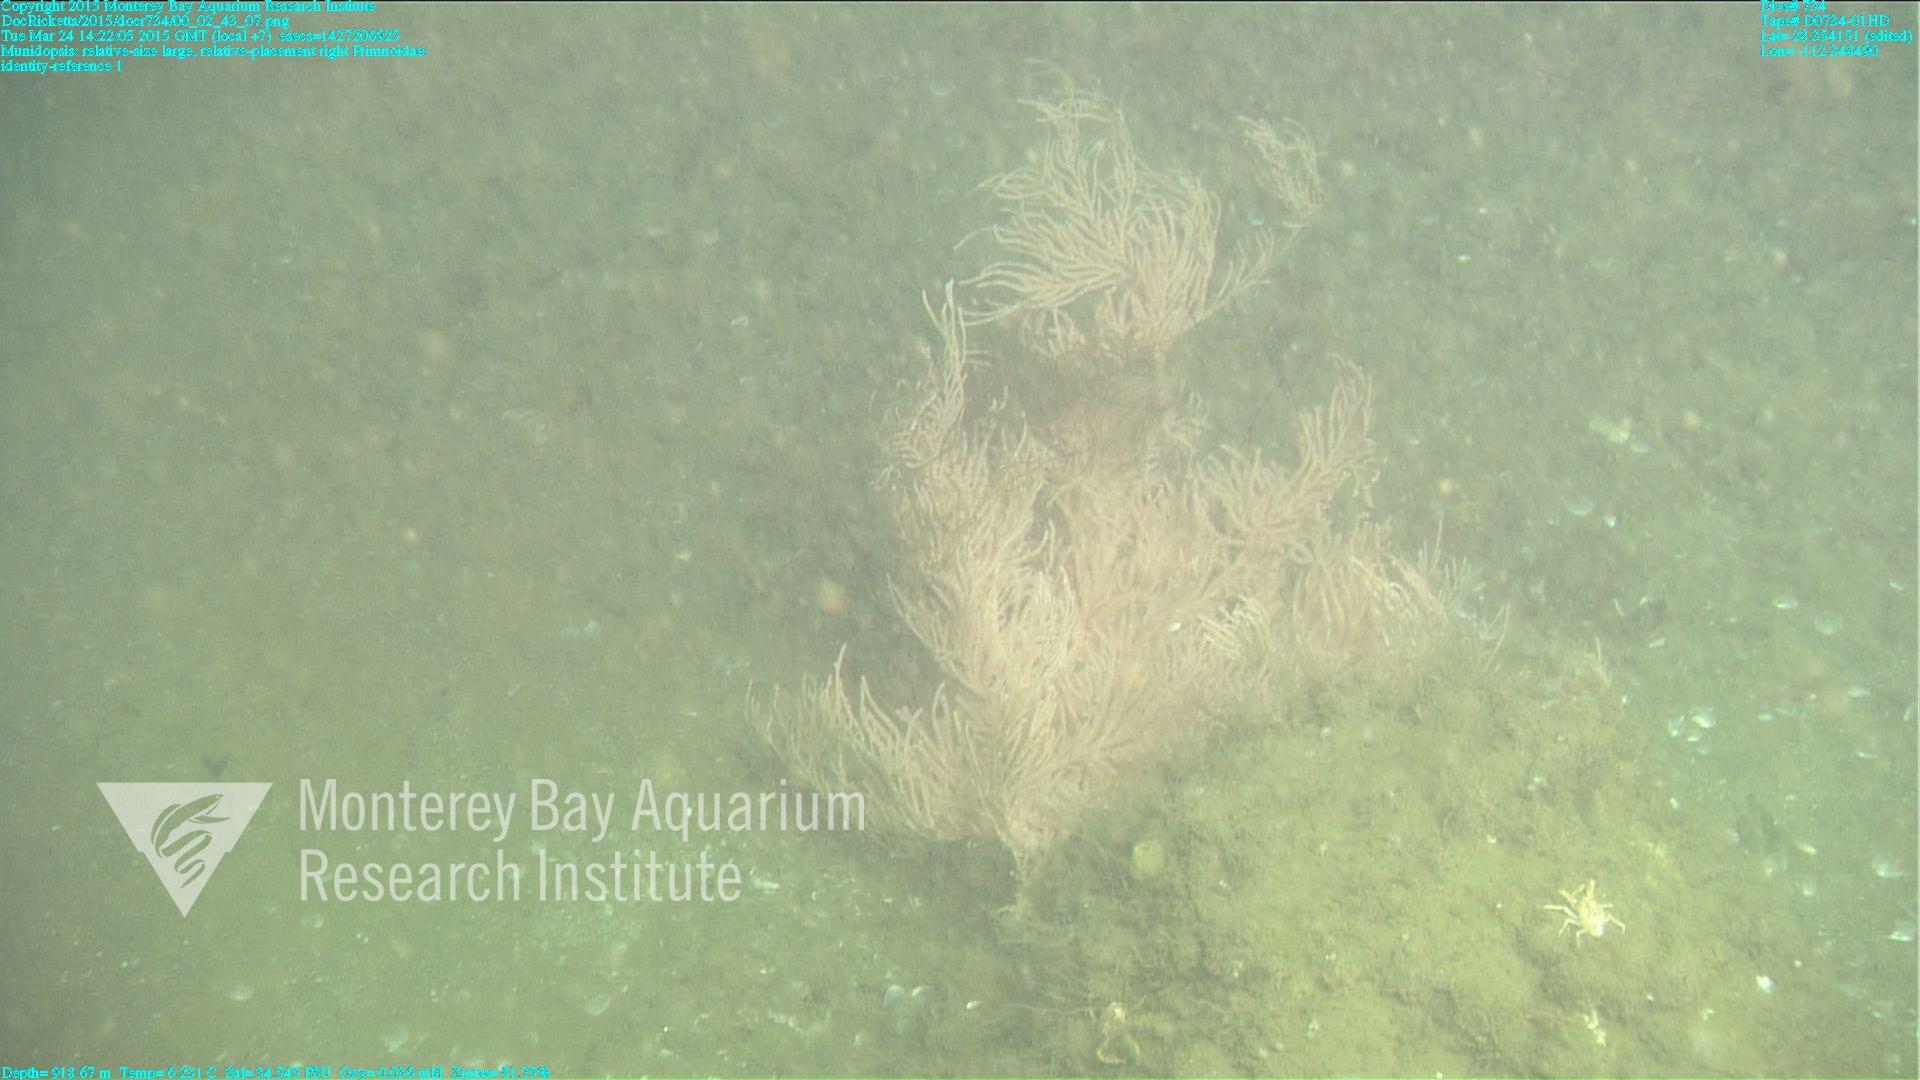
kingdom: Animalia
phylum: Cnidaria
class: Anthozoa
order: Scleralcyonacea
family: Primnoidae
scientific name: Primnoidae
